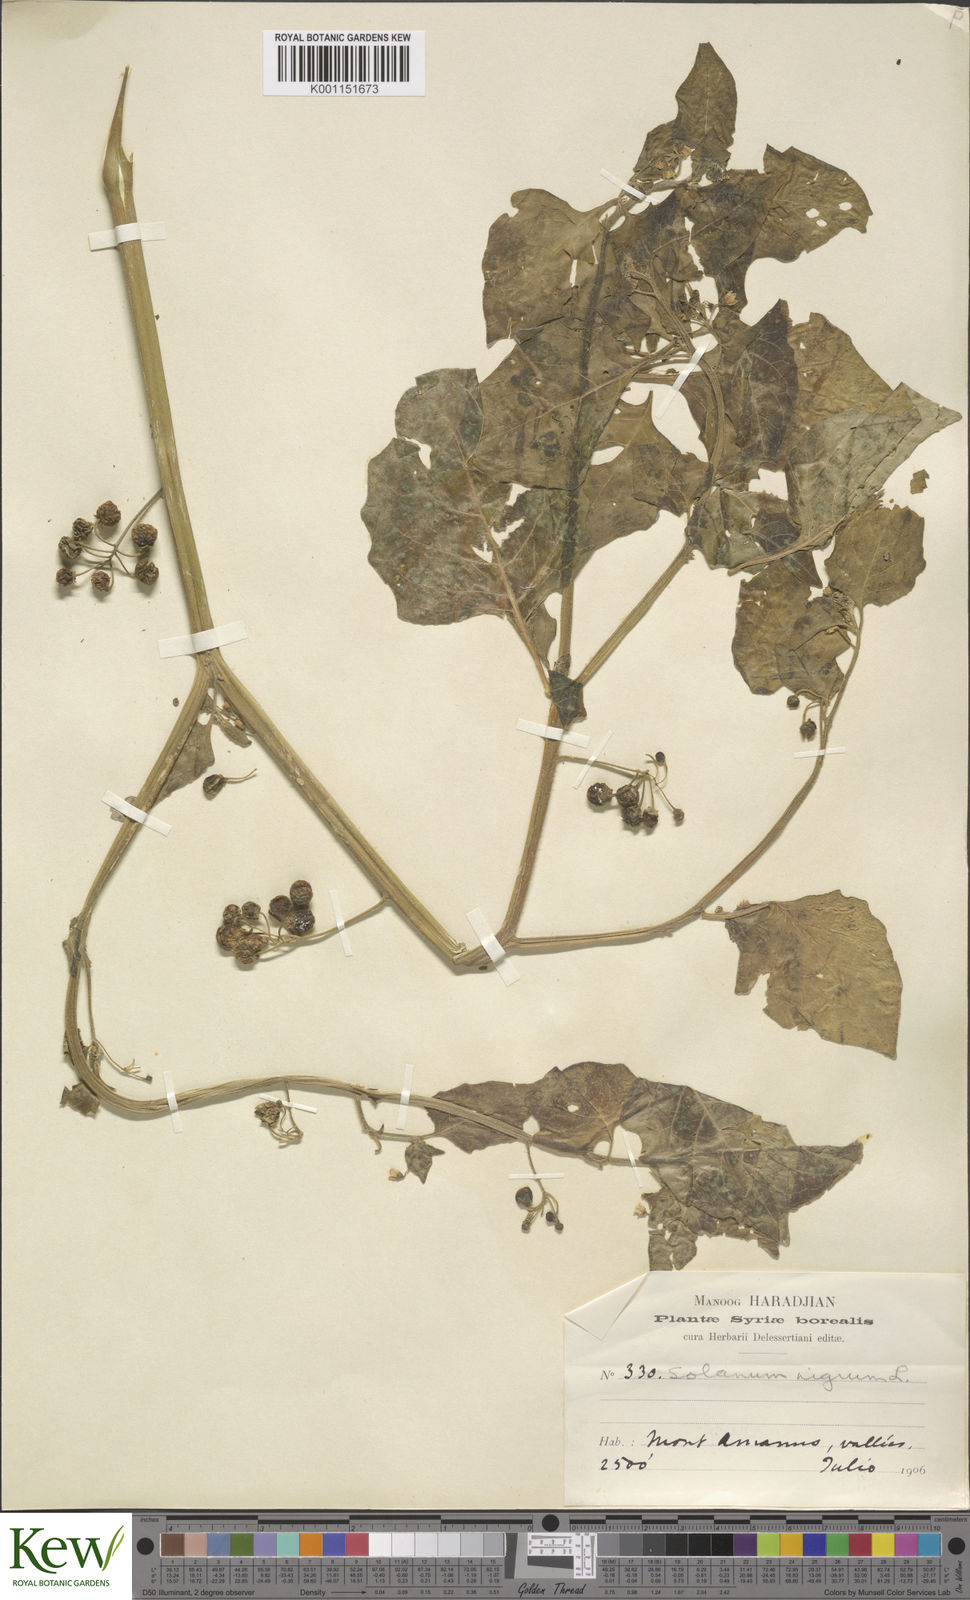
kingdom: Plantae
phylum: Tracheophyta
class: Magnoliopsida
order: Solanales
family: Solanaceae
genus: Solanum
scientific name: Solanum
